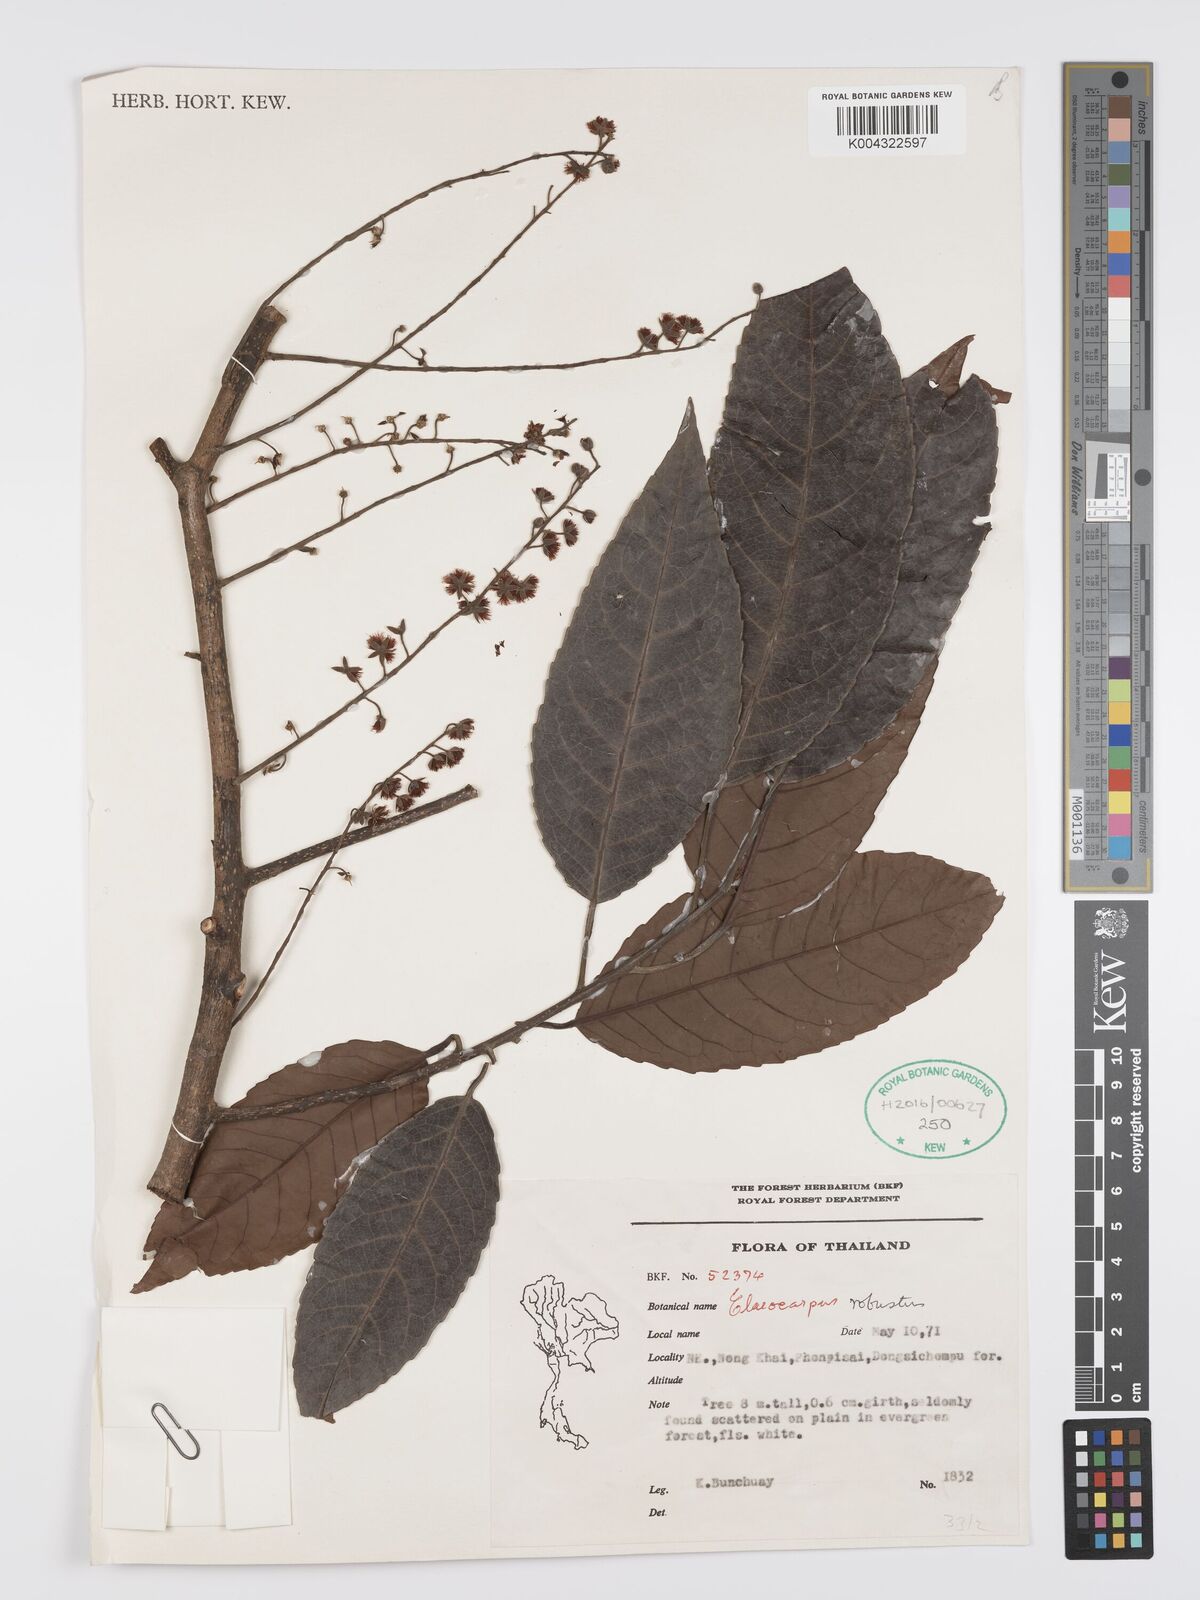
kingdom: Plantae
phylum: Tracheophyta
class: Magnoliopsida
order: Oxalidales
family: Elaeocarpaceae
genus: Elaeocarpus
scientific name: Elaeocarpus robustus
